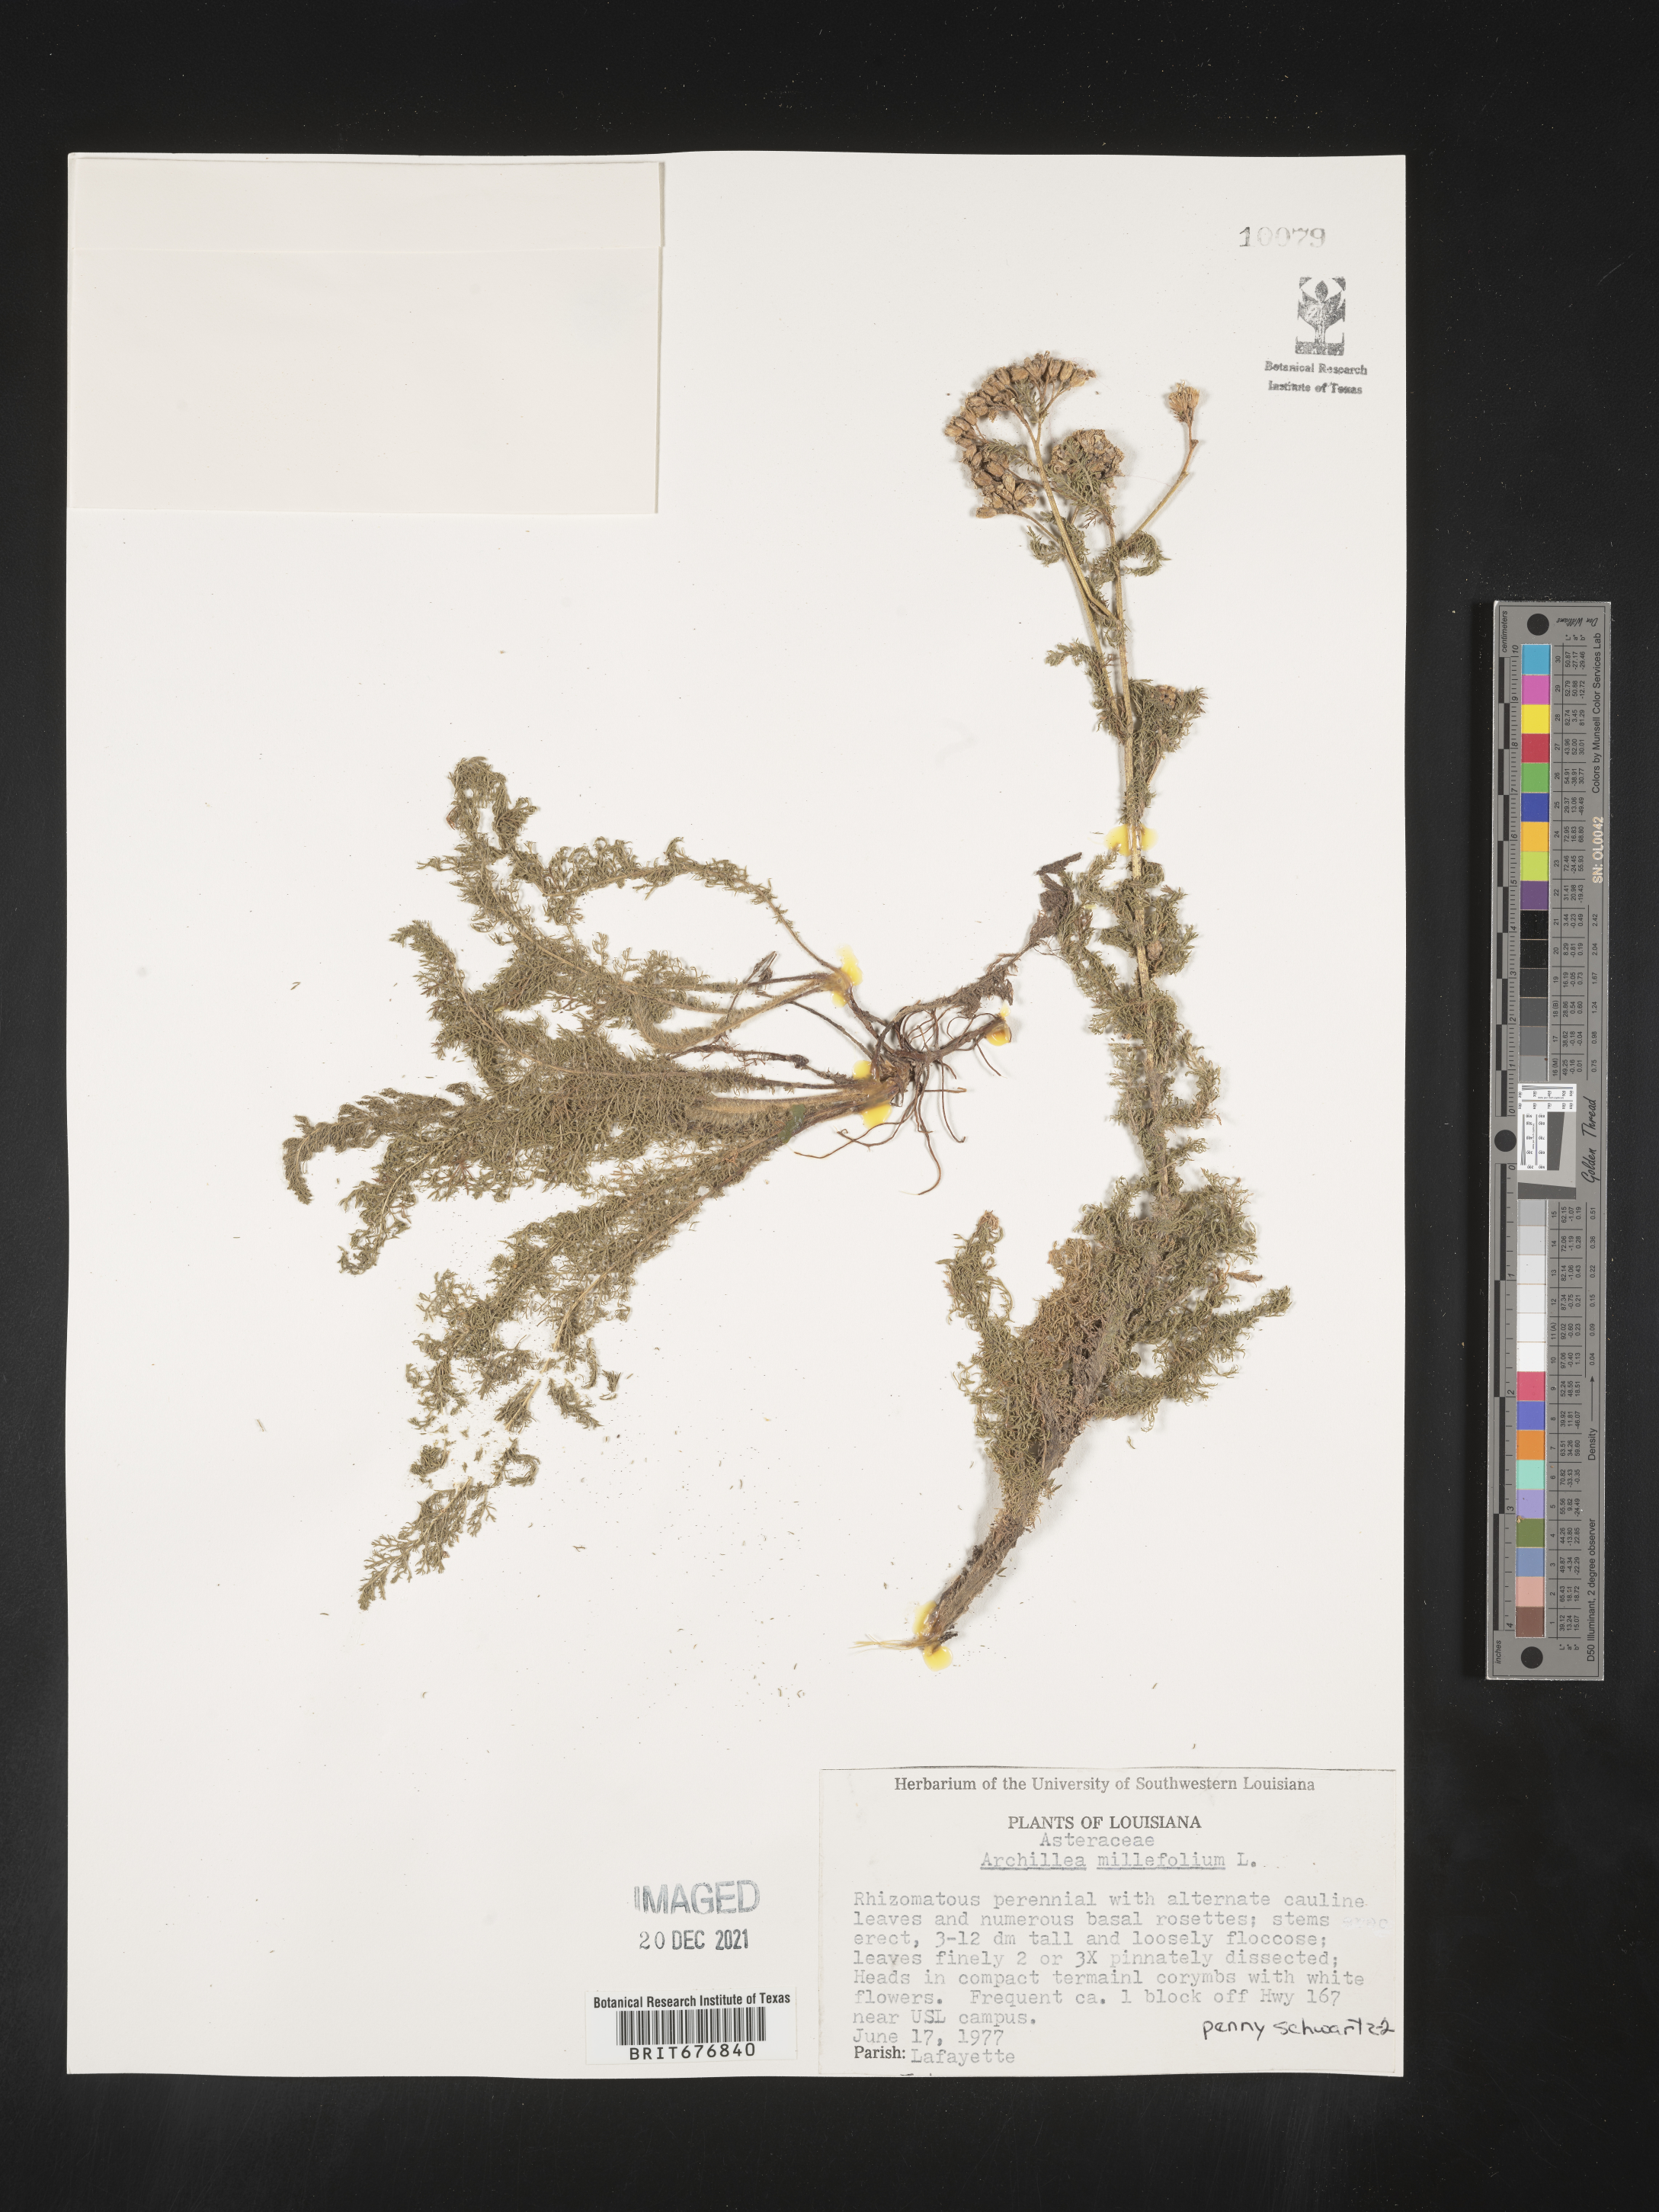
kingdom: Plantae
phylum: Tracheophyta
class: Magnoliopsida
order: Asterales
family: Asteraceae
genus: Achillea
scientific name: Achillea millefolium
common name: Yarrow
